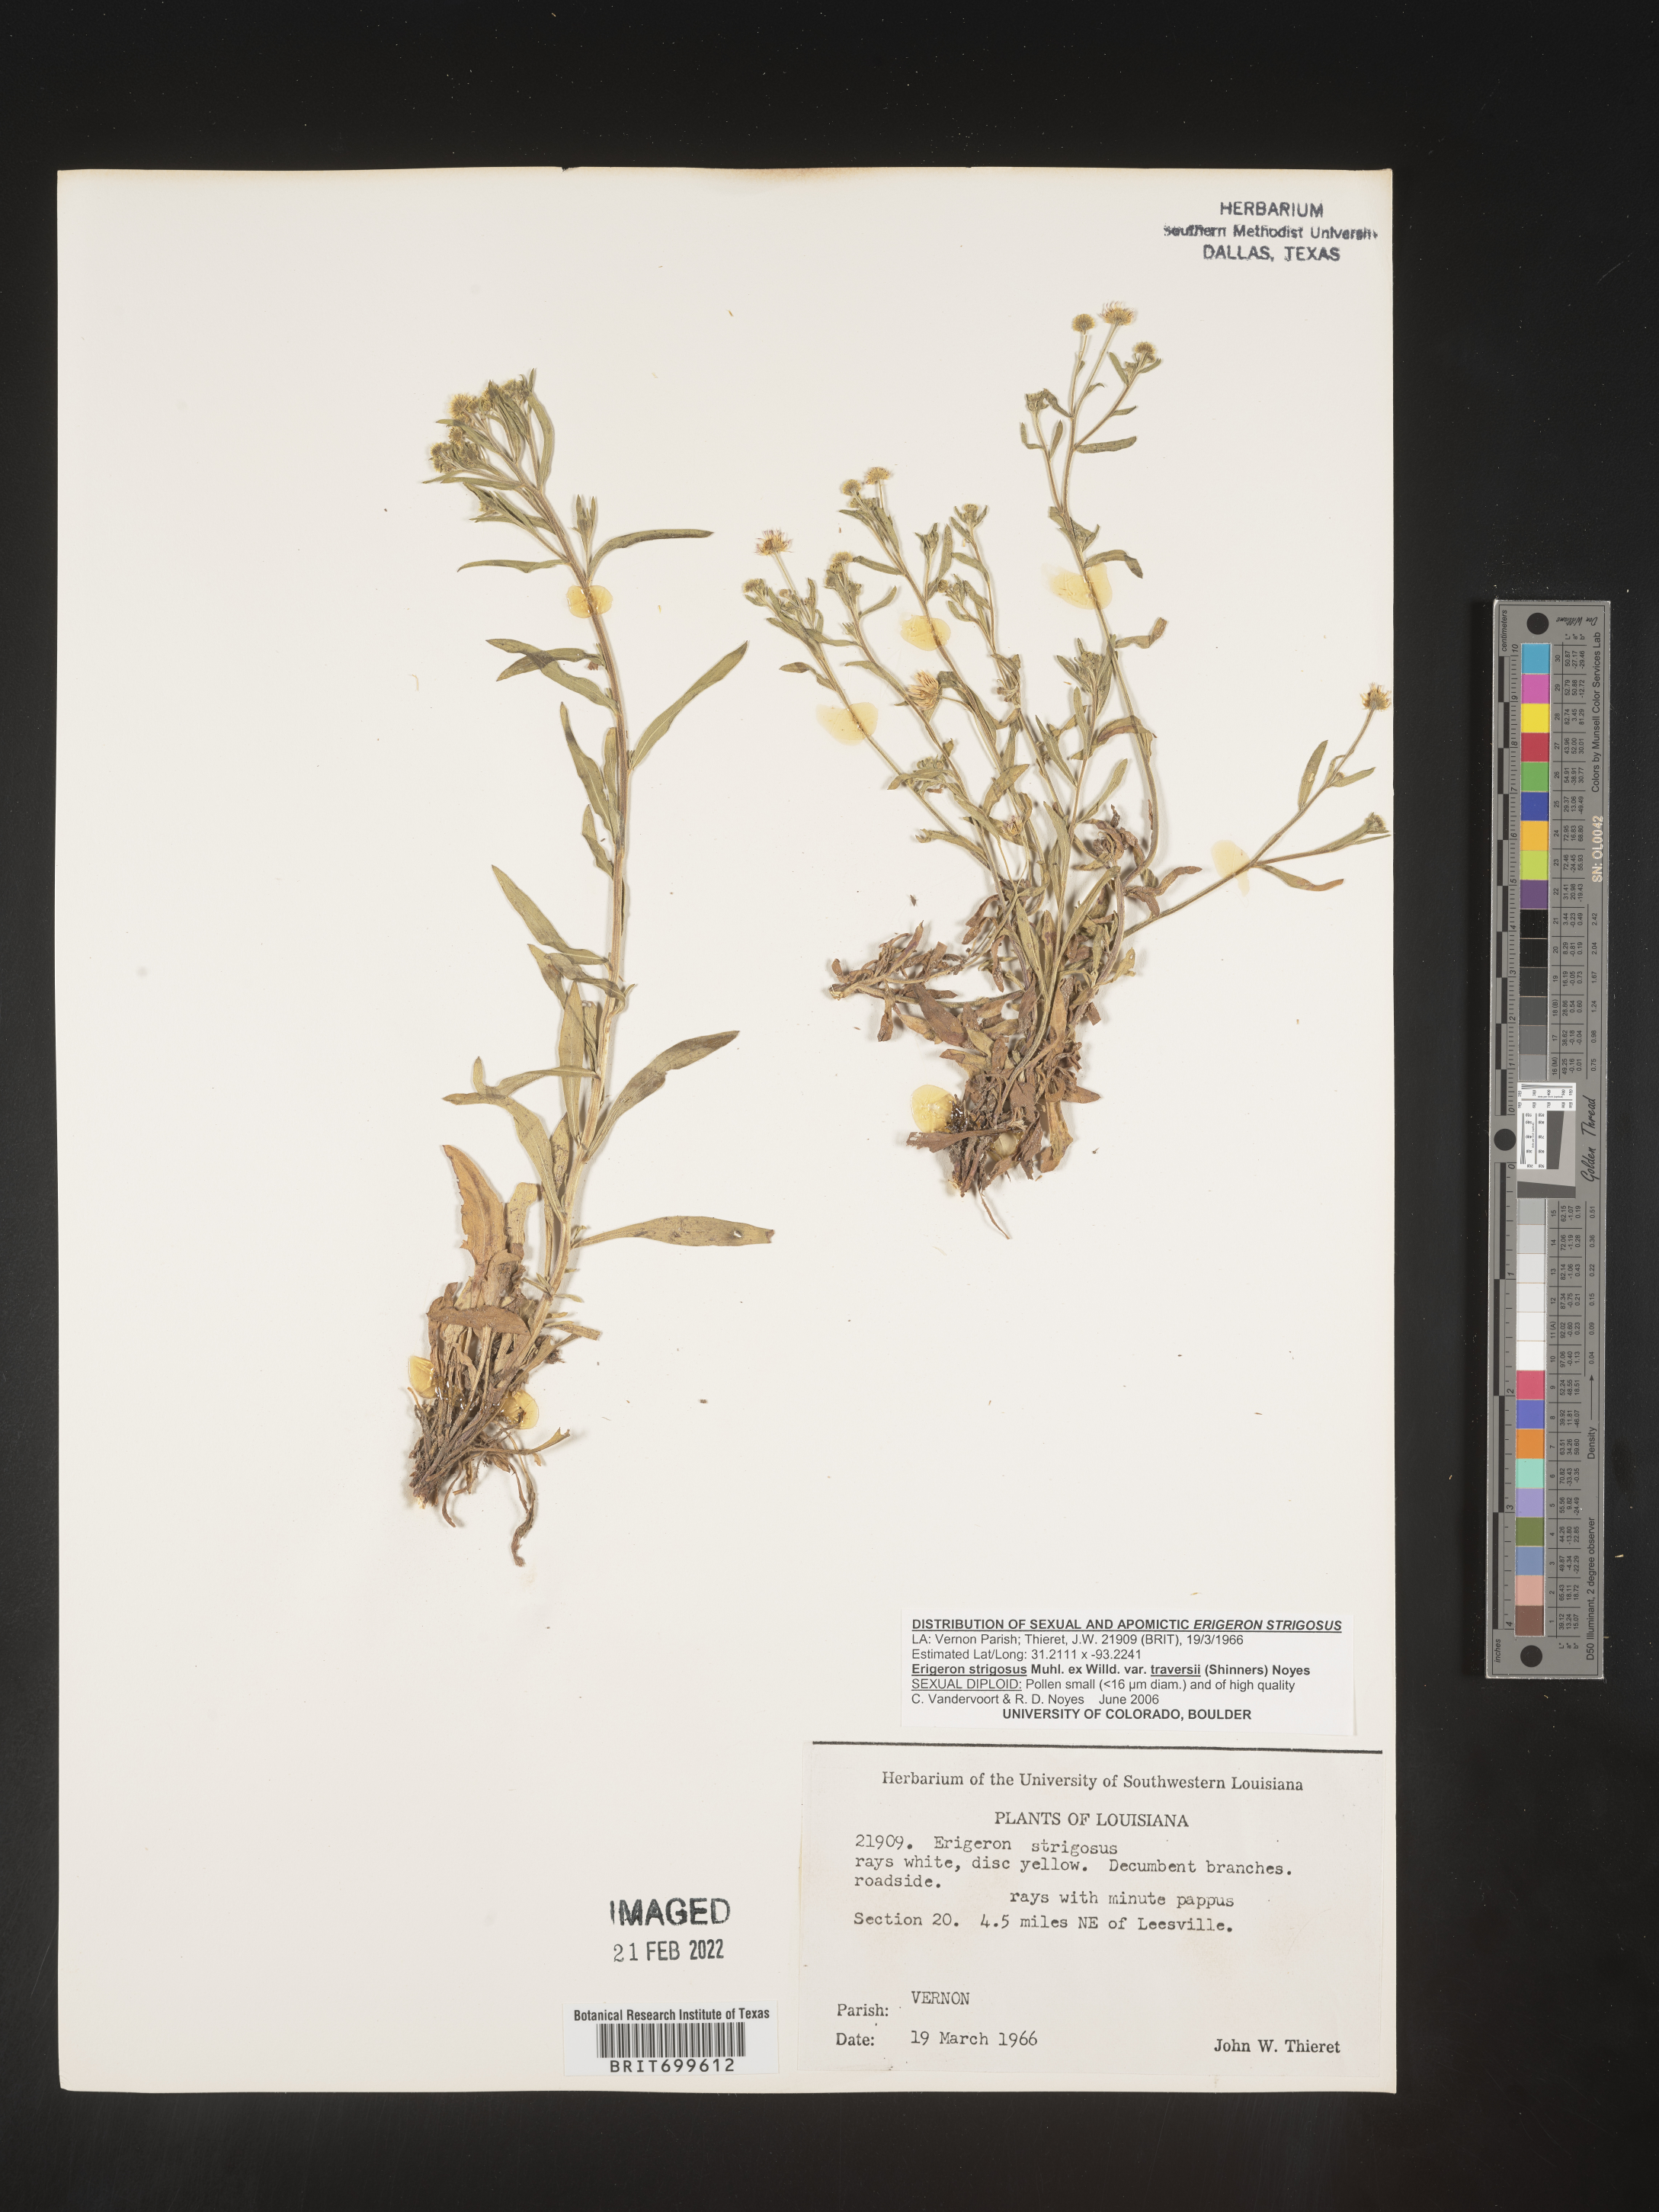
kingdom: Plantae
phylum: Tracheophyta
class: Magnoliopsida
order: Asterales
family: Asteraceae
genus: Erigeron
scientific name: Erigeron strigosus
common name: Common eastern fleabane
